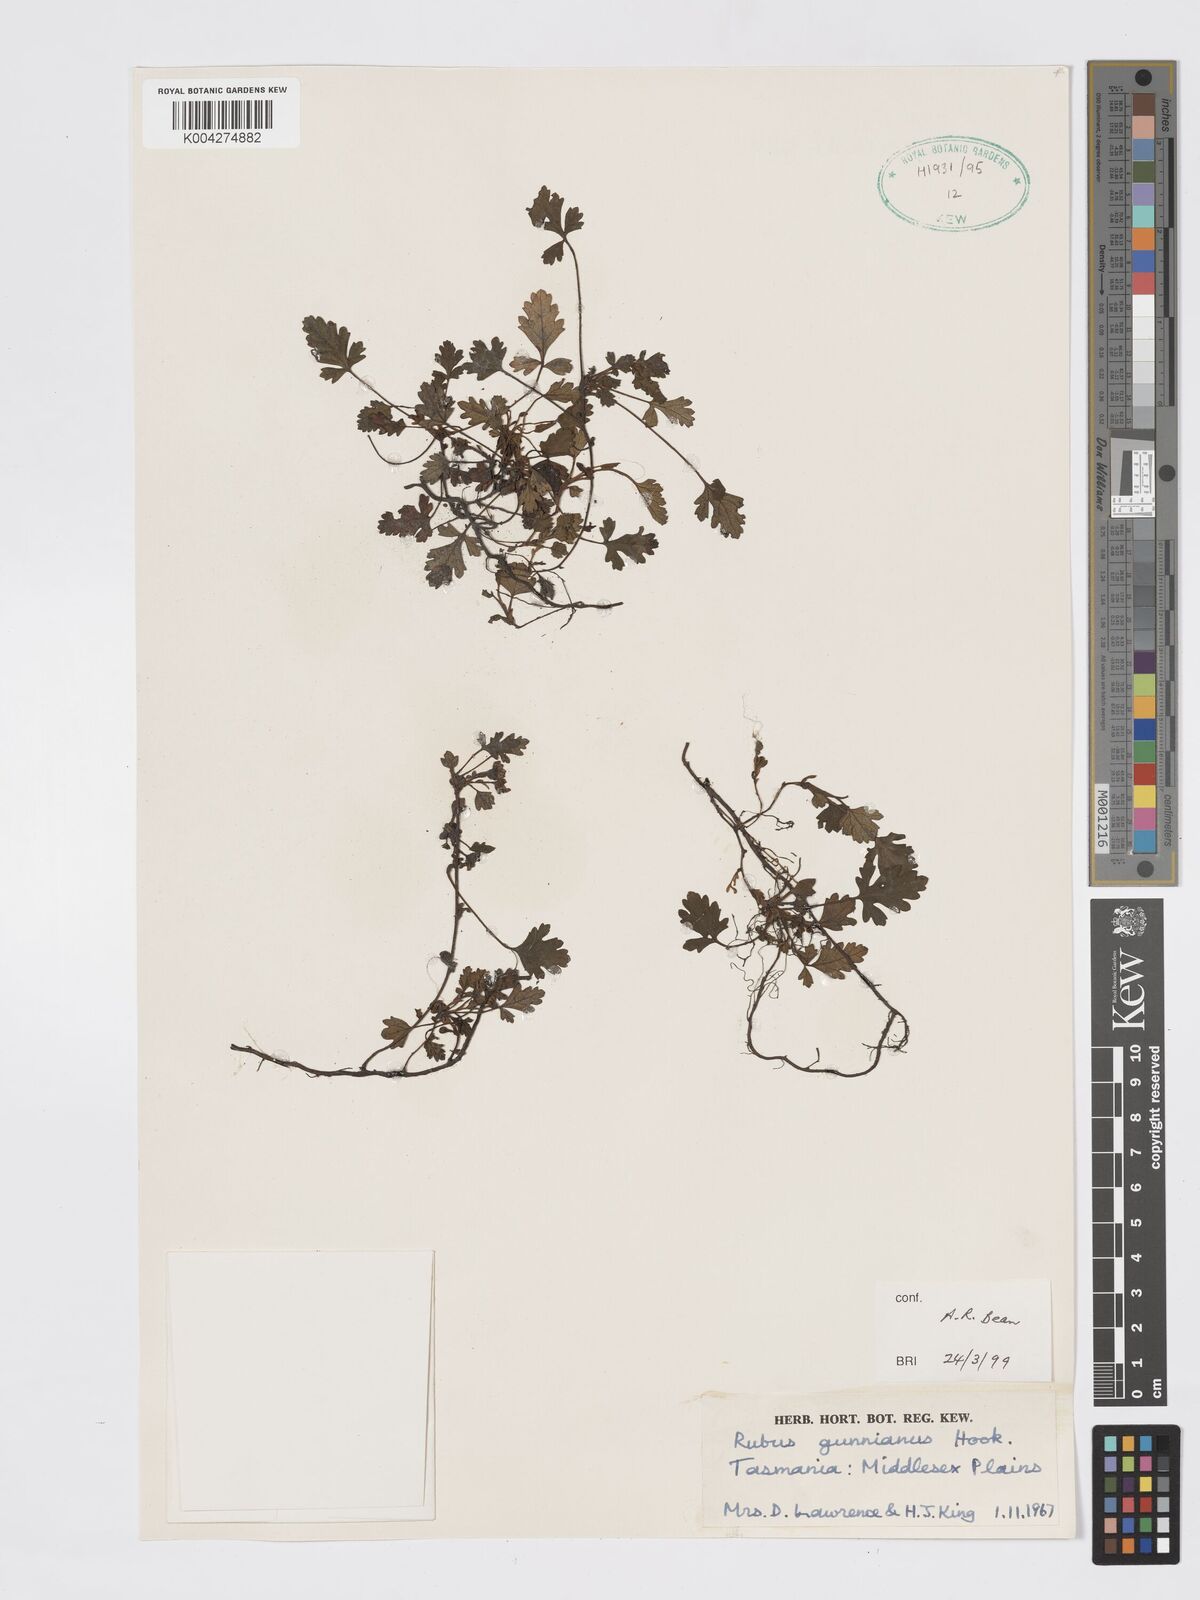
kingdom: Plantae
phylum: Tracheophyta
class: Magnoliopsida
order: Rosales
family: Rosaceae
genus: Rubus
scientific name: Rubus gunnianus
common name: Mountain raspberry
